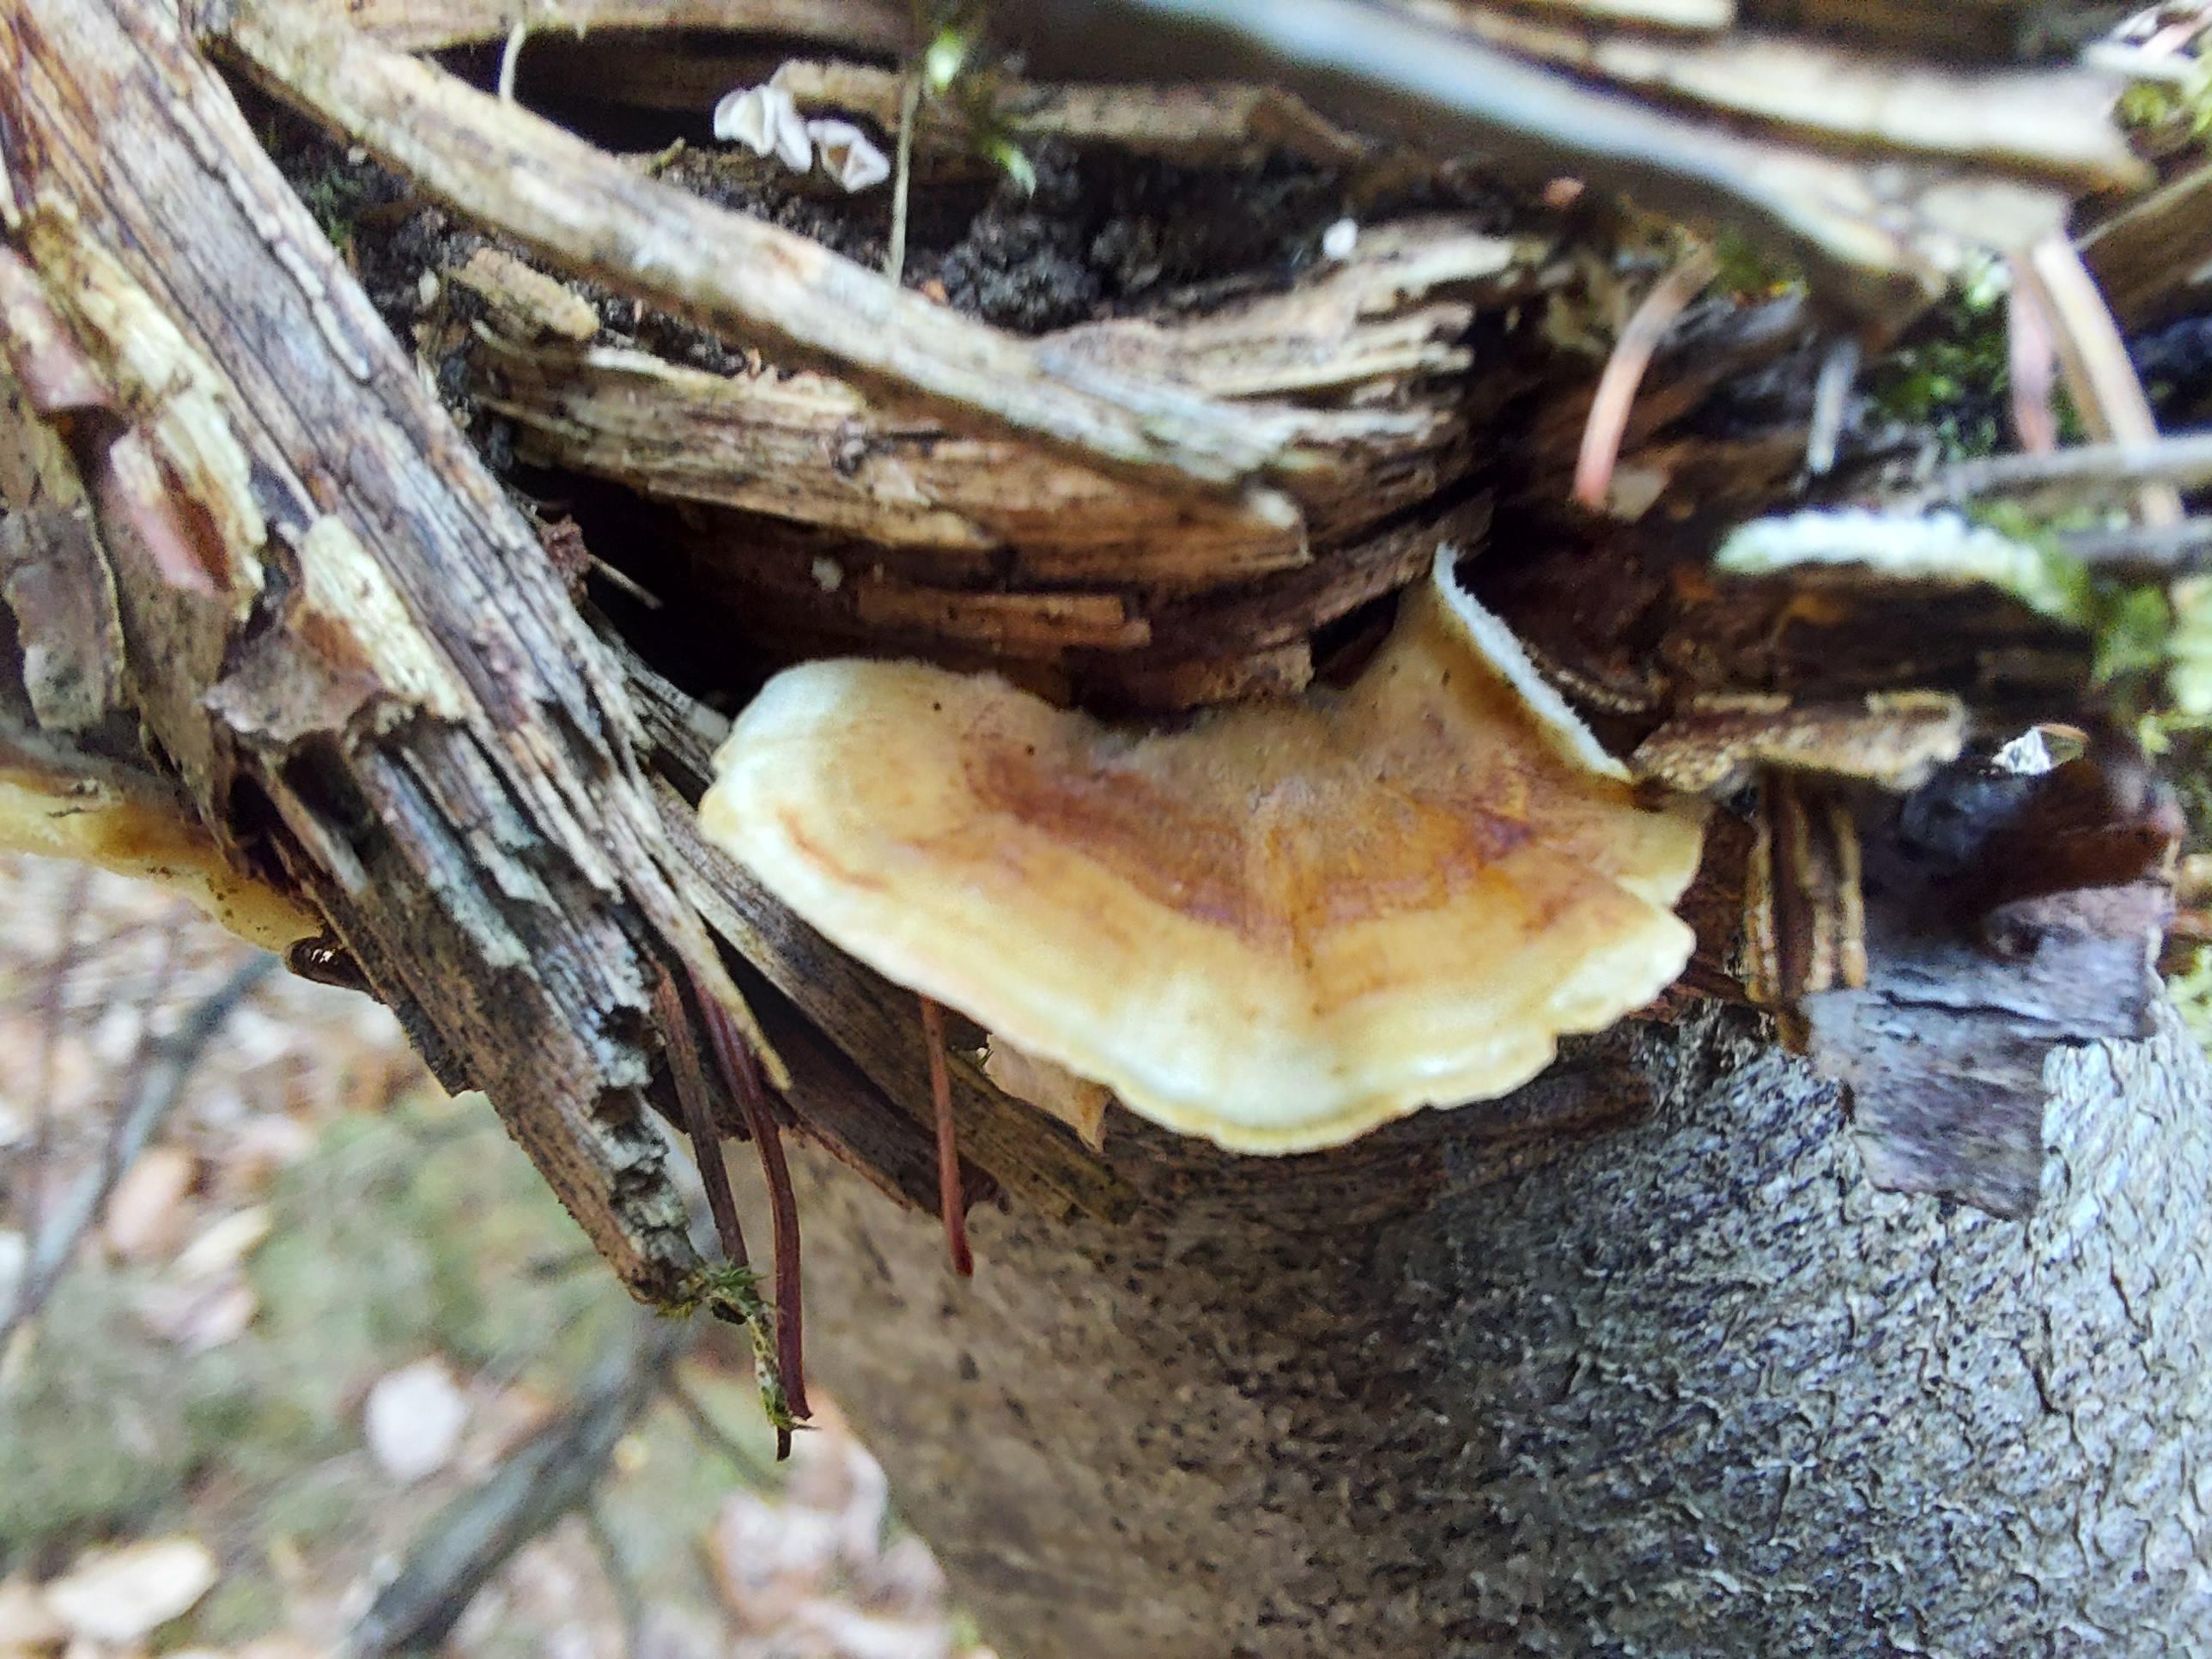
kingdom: Fungi
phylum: Basidiomycota
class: Agaricomycetes
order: Polyporales
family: Polyporaceae
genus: Trametes
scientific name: Trametes
